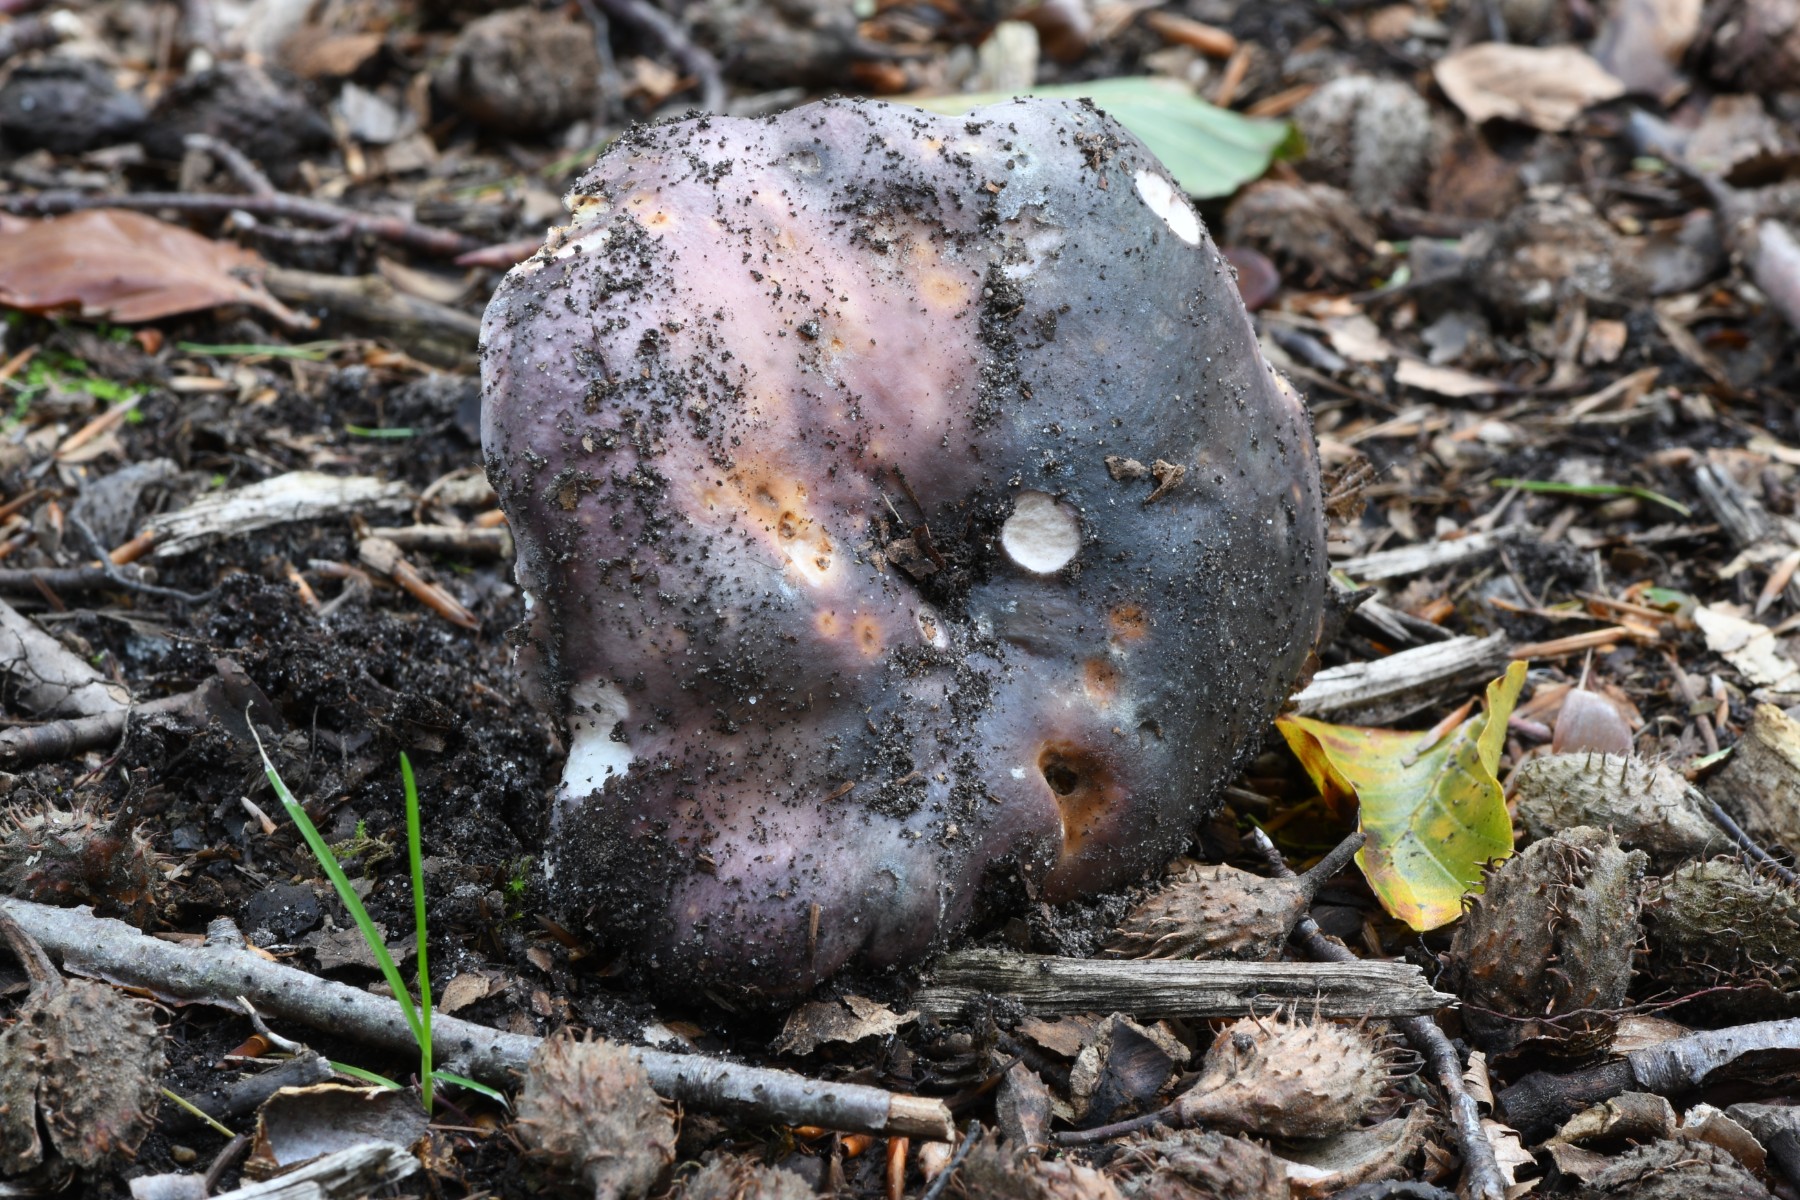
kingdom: Fungi
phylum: Basidiomycota
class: Agaricomycetes
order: Russulales
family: Russulaceae
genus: Russula
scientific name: Russula cyanoxantha
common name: broget skørhat
